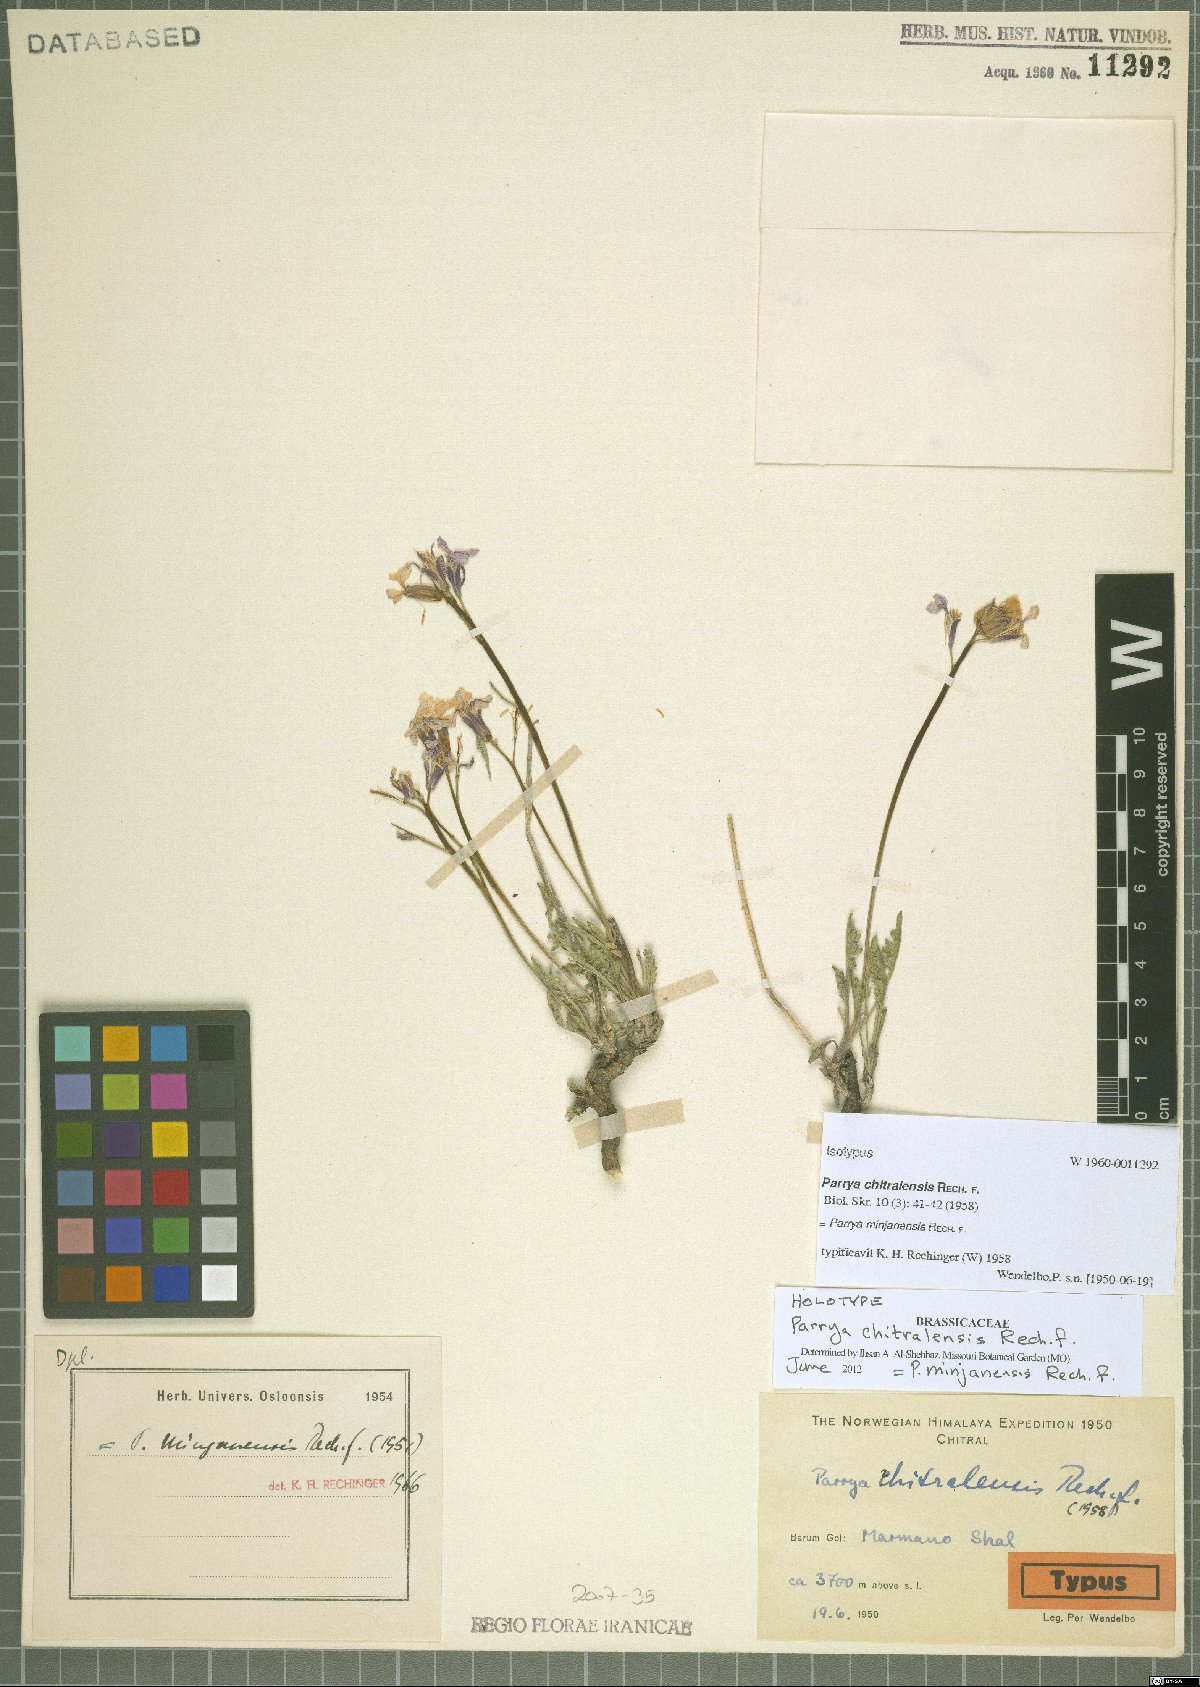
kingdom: Plantae
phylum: Tracheophyta
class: Magnoliopsida
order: Brassicales
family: Brassicaceae
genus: Parrya
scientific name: Parrya minjanensis
